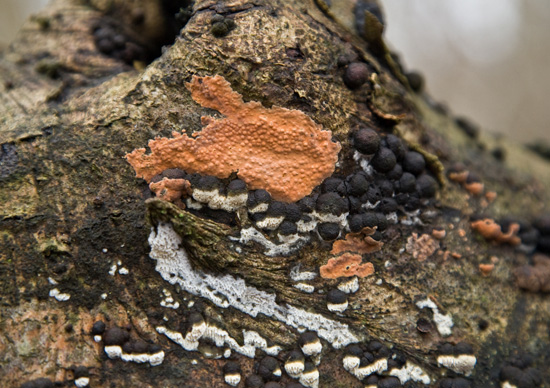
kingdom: Fungi
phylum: Basidiomycota
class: Agaricomycetes
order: Russulales
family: Peniophoraceae
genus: Peniophora
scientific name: Peniophora incarnata
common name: laksefarvet voksskind
